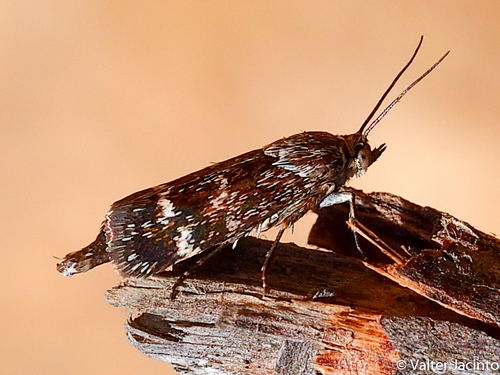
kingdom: Animalia
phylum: Arthropoda
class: Insecta
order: Lepidoptera
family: Brachodidae
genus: Atychia
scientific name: Atychia Brachodes funebris
